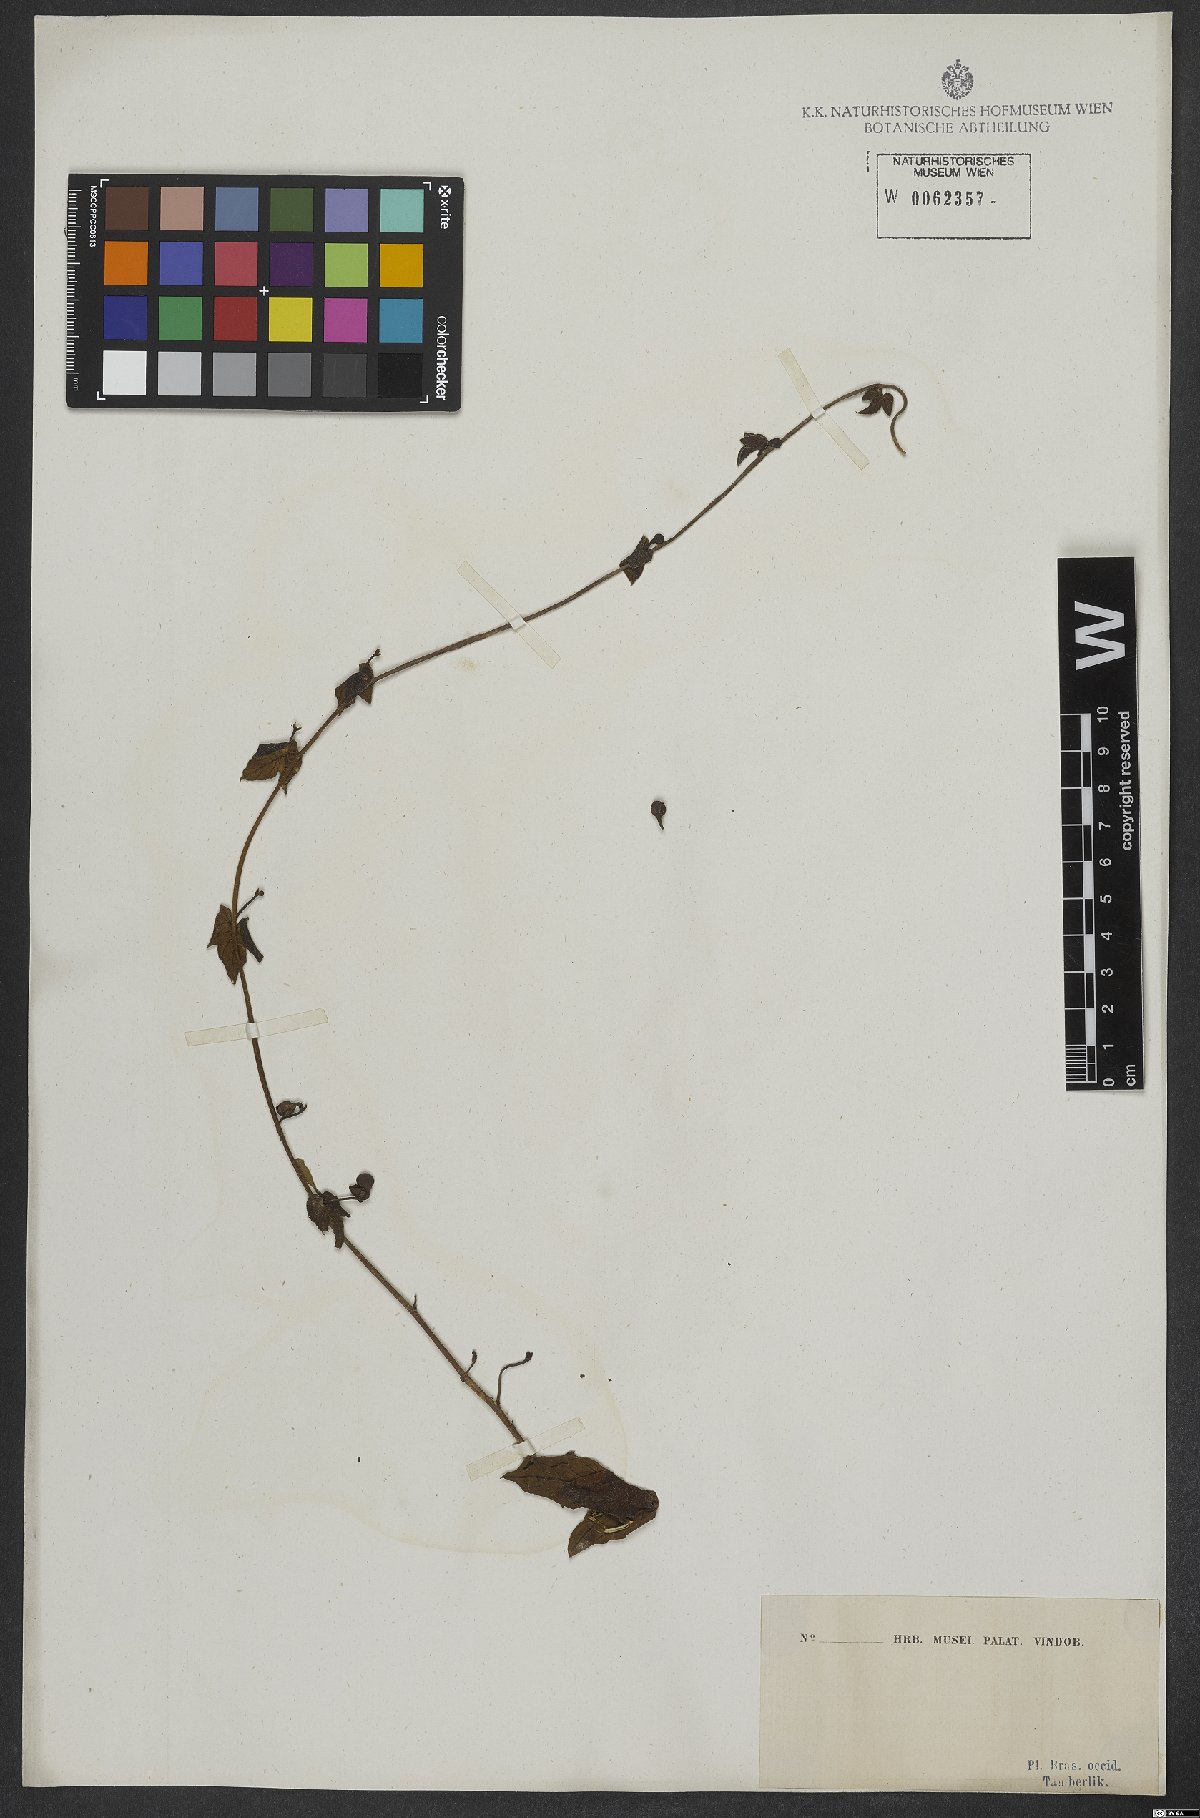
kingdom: Plantae
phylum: Tracheophyta
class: Magnoliopsida
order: Solanales
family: Convolvulaceae
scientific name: Convolvulaceae
